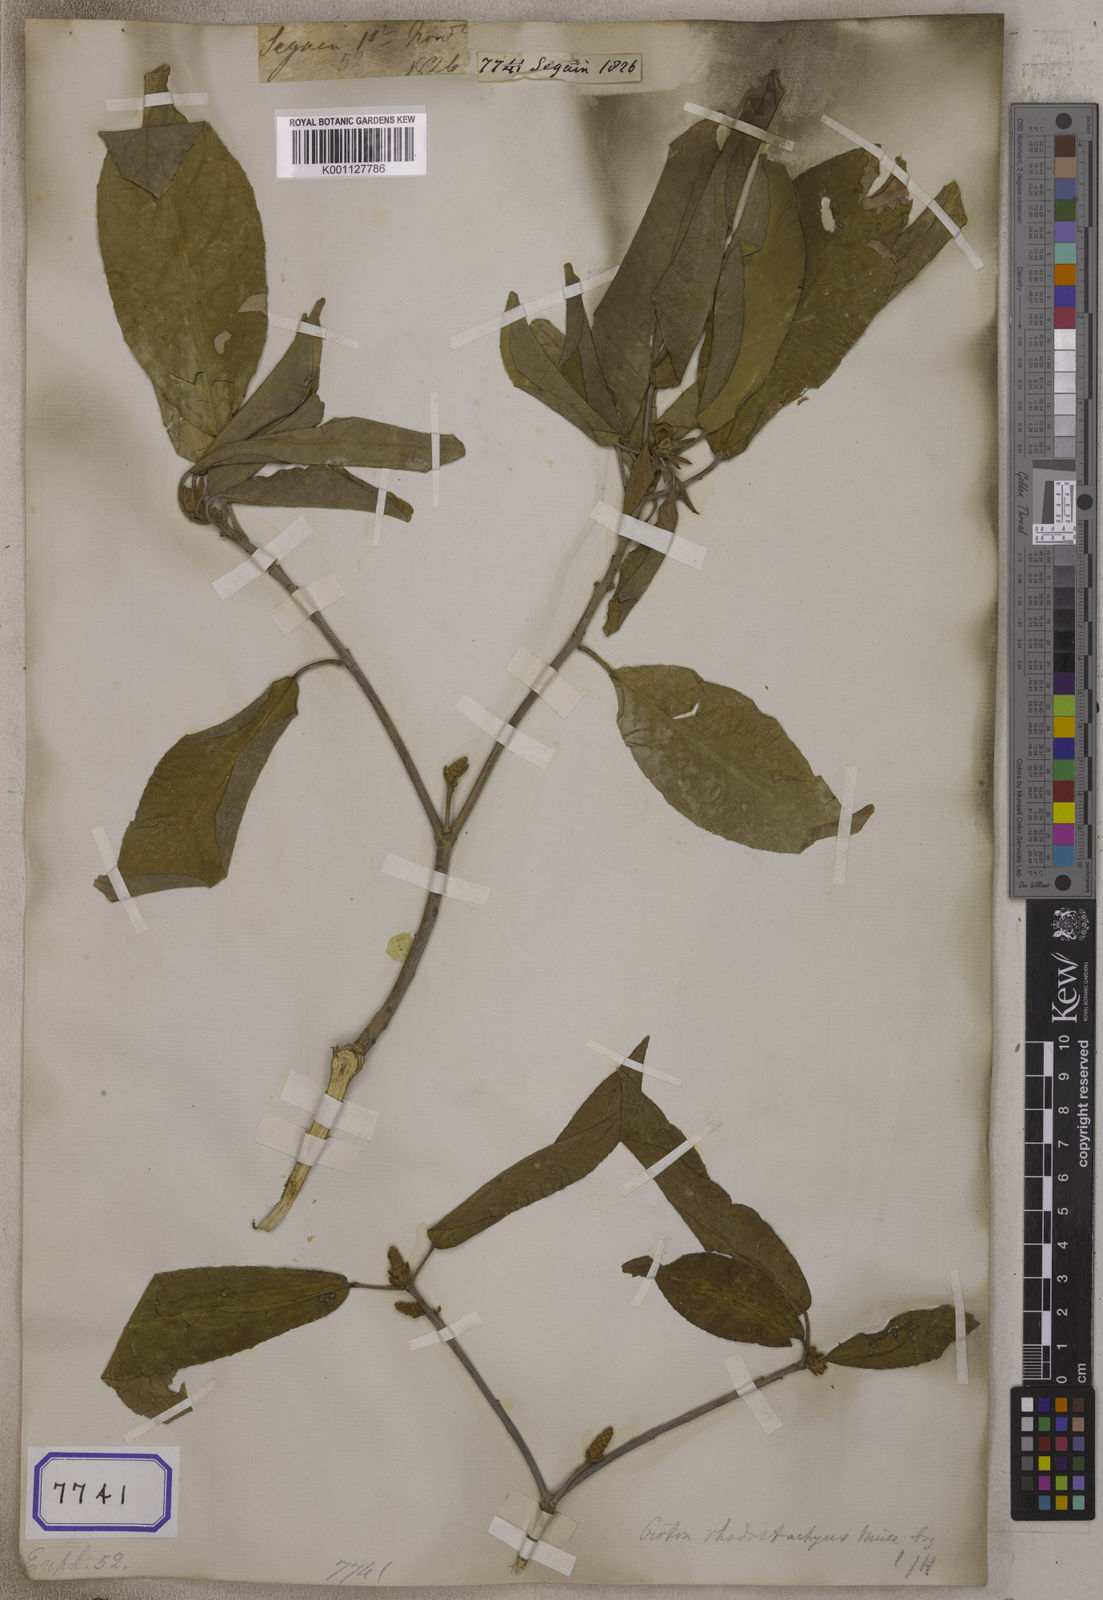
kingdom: Plantae
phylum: Tracheophyta
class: Magnoliopsida
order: Malpighiales
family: Euphorbiaceae
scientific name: Euphorbiaceae
